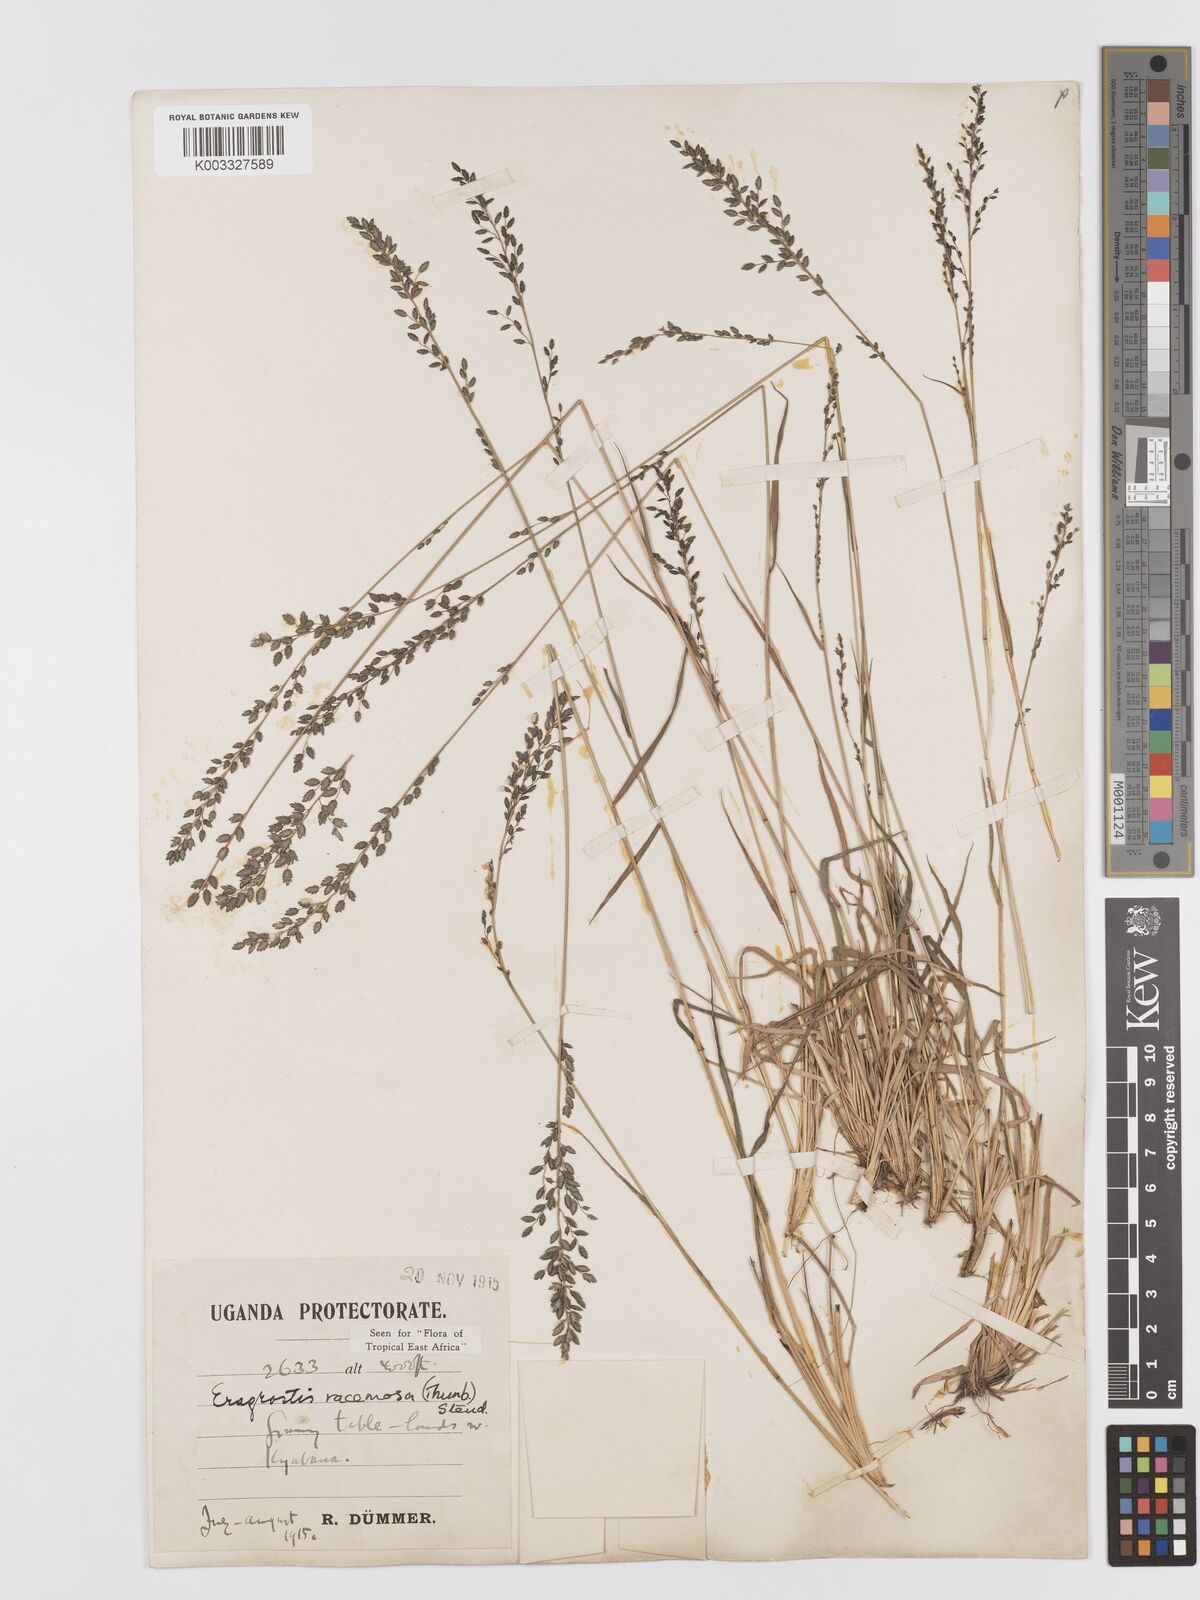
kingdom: Plantae
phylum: Tracheophyta
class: Liliopsida
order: Poales
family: Poaceae
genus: Eragrostis
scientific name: Eragrostis racemosa
